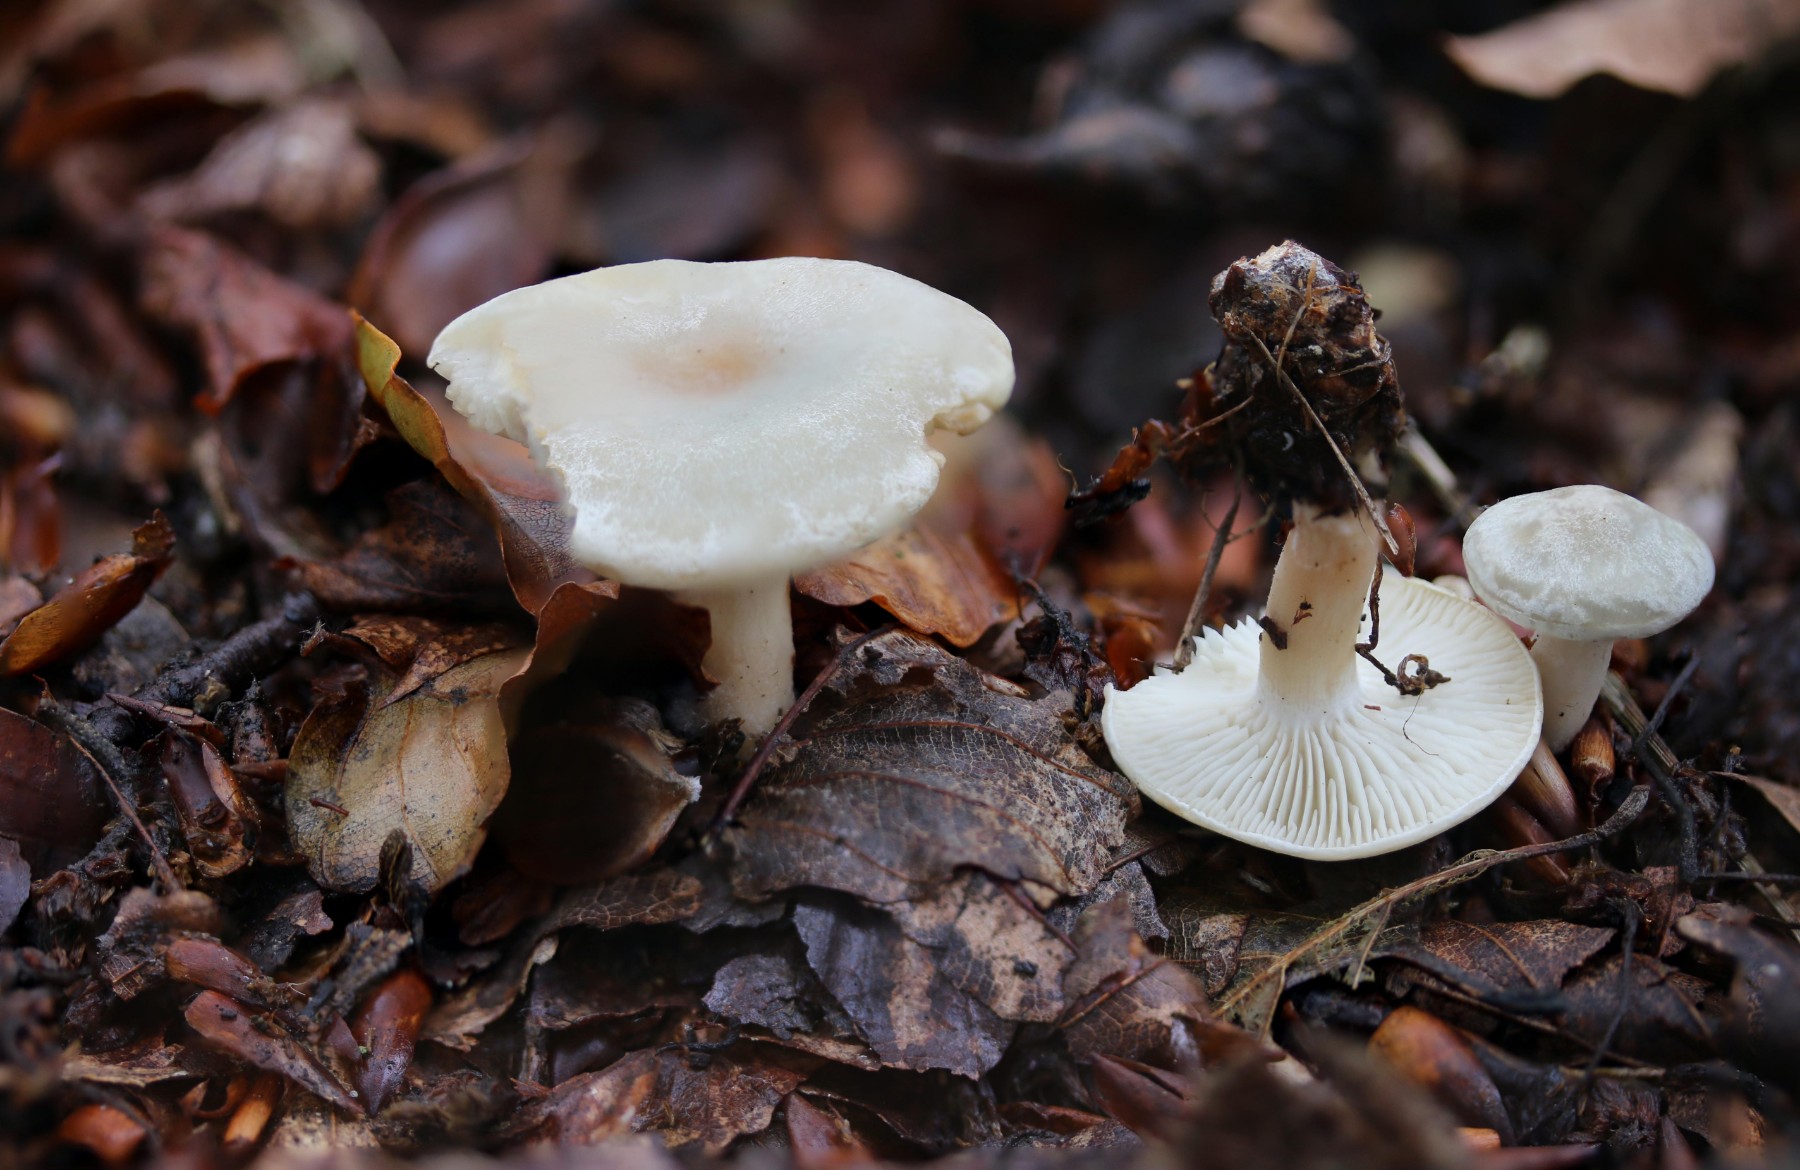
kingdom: Fungi
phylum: Basidiomycota
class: Agaricomycetes
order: Agaricales
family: Tricholomataceae
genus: Clitocybe
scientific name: Clitocybe odora
